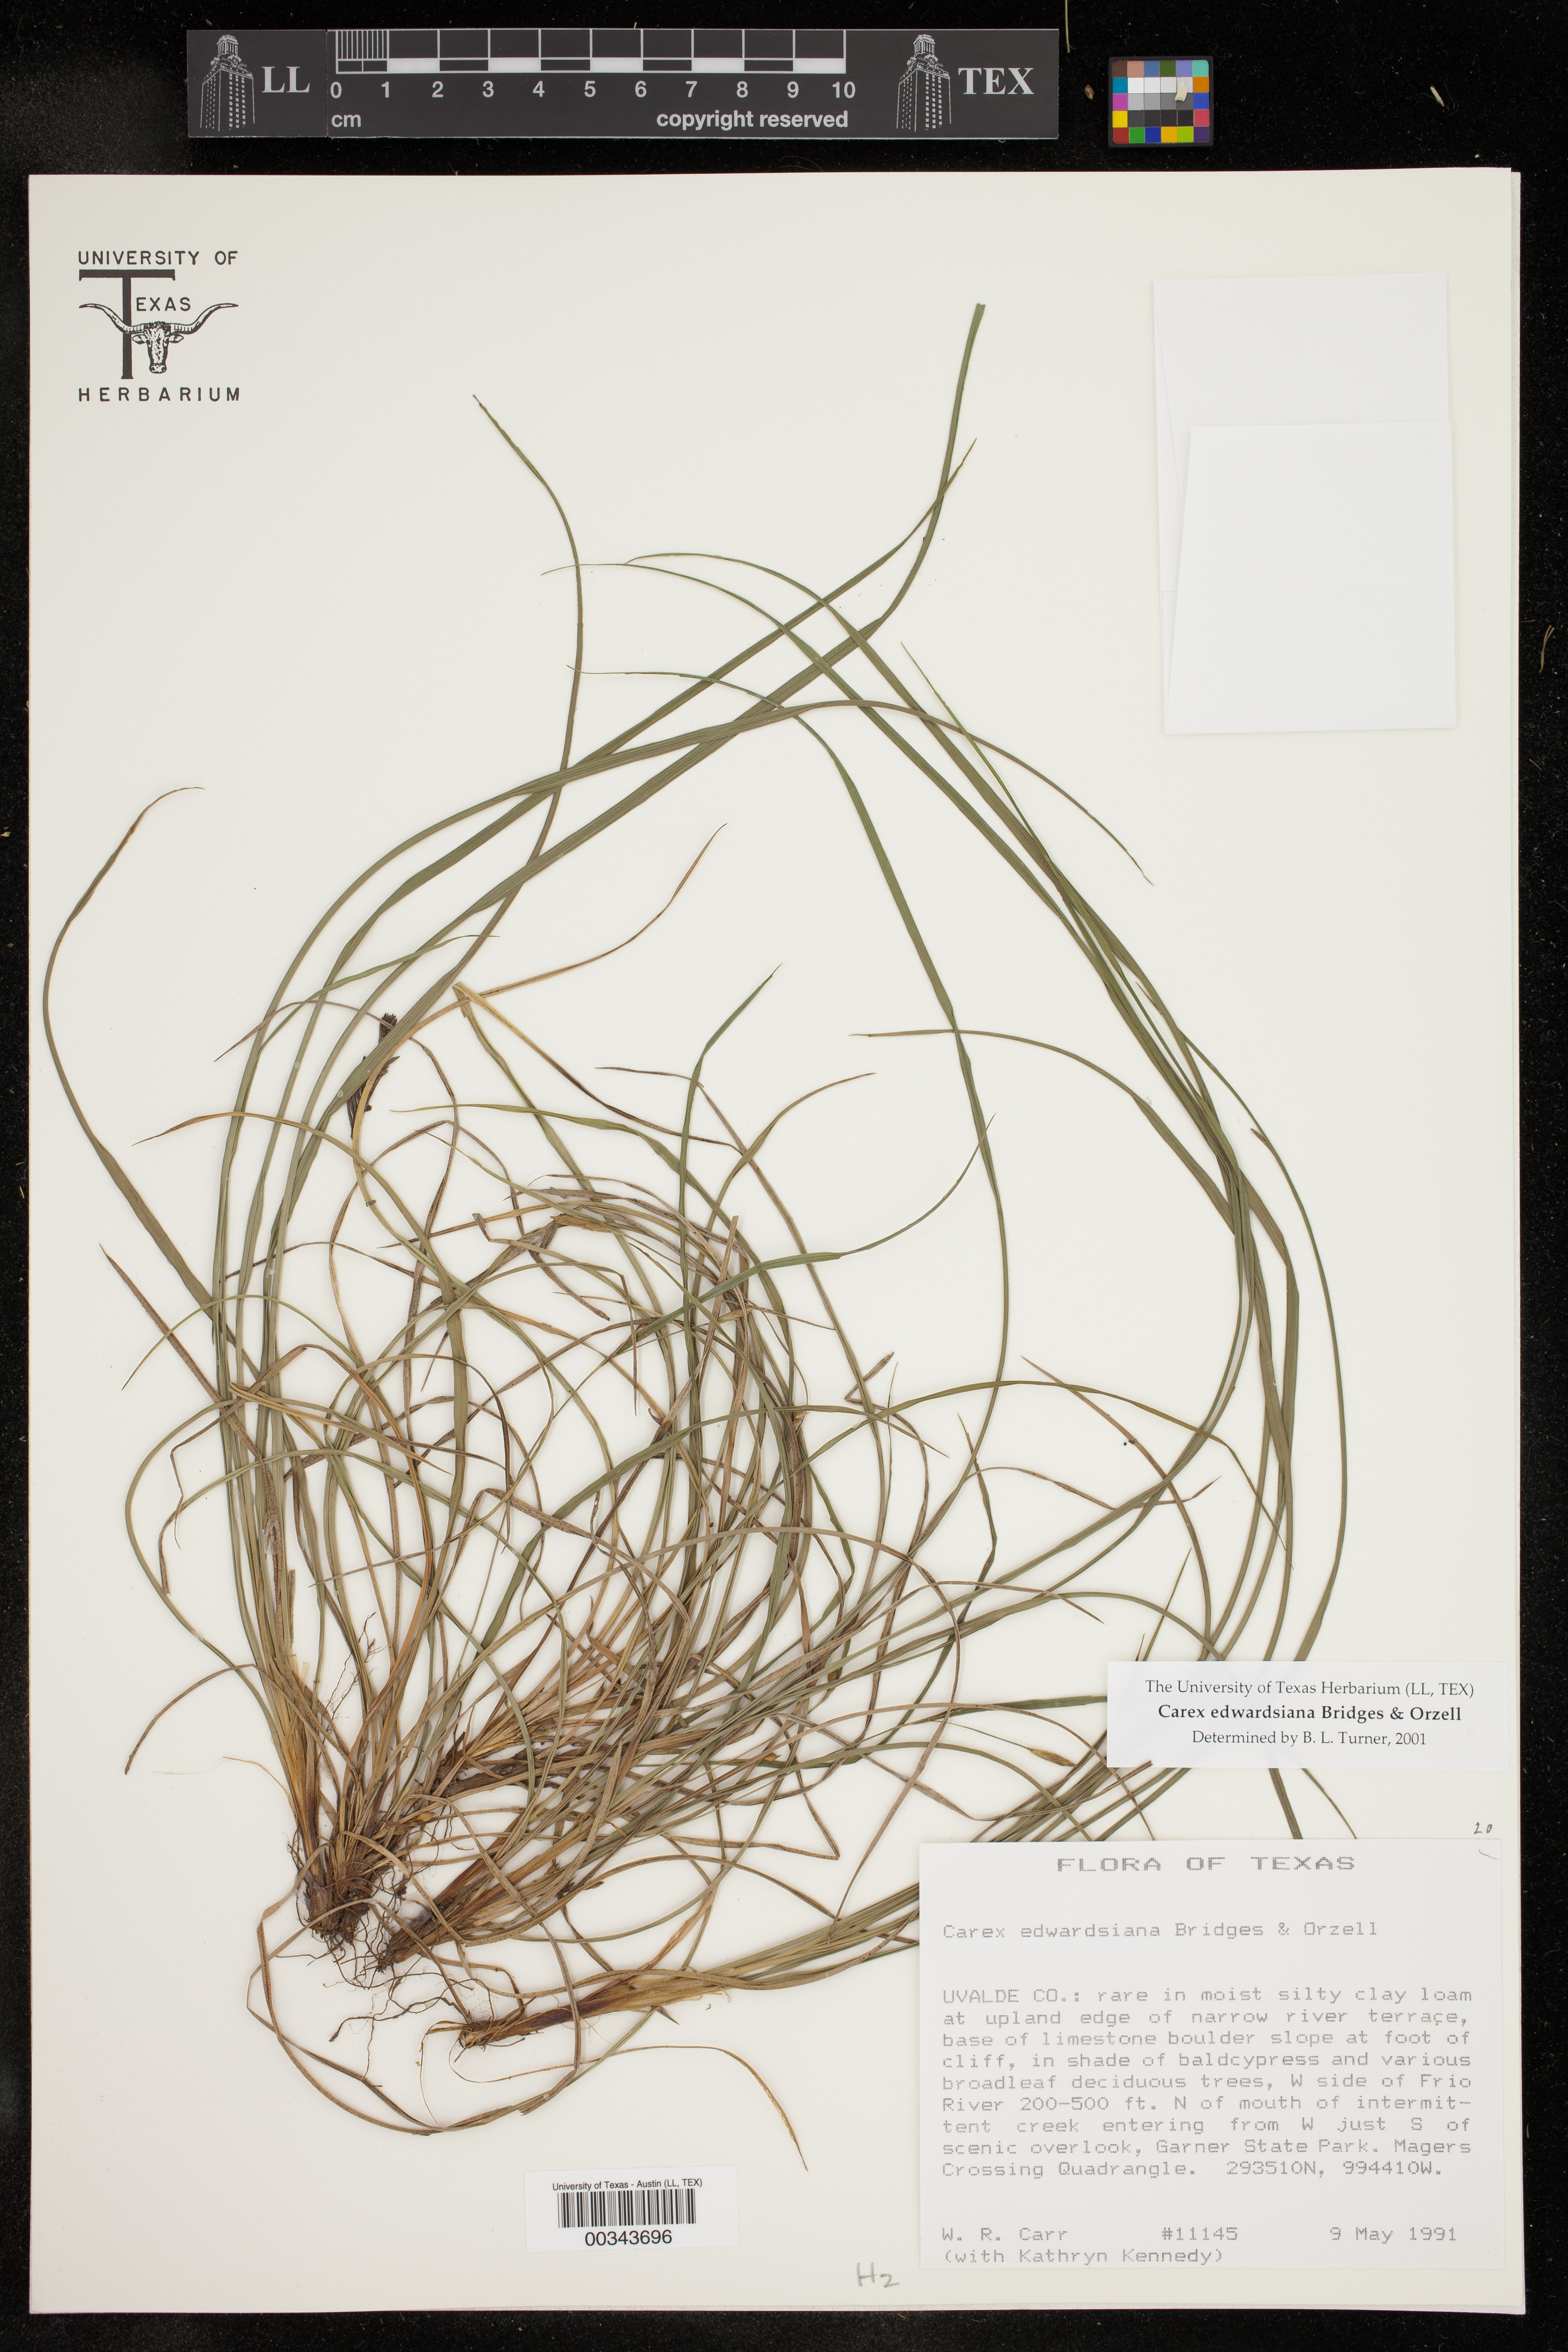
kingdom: Plantae
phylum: Tracheophyta
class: Liliopsida
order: Poales
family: Cyperaceae
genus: Carex
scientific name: Carex edwardsiana
